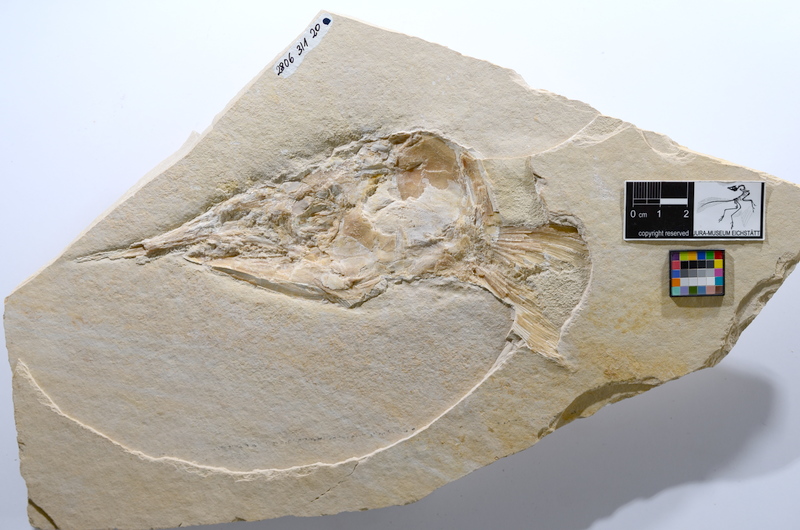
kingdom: Animalia
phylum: Chordata
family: Aspidorhynchidae
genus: Aspidorhynchus
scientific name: Aspidorhynchus acutirostris
